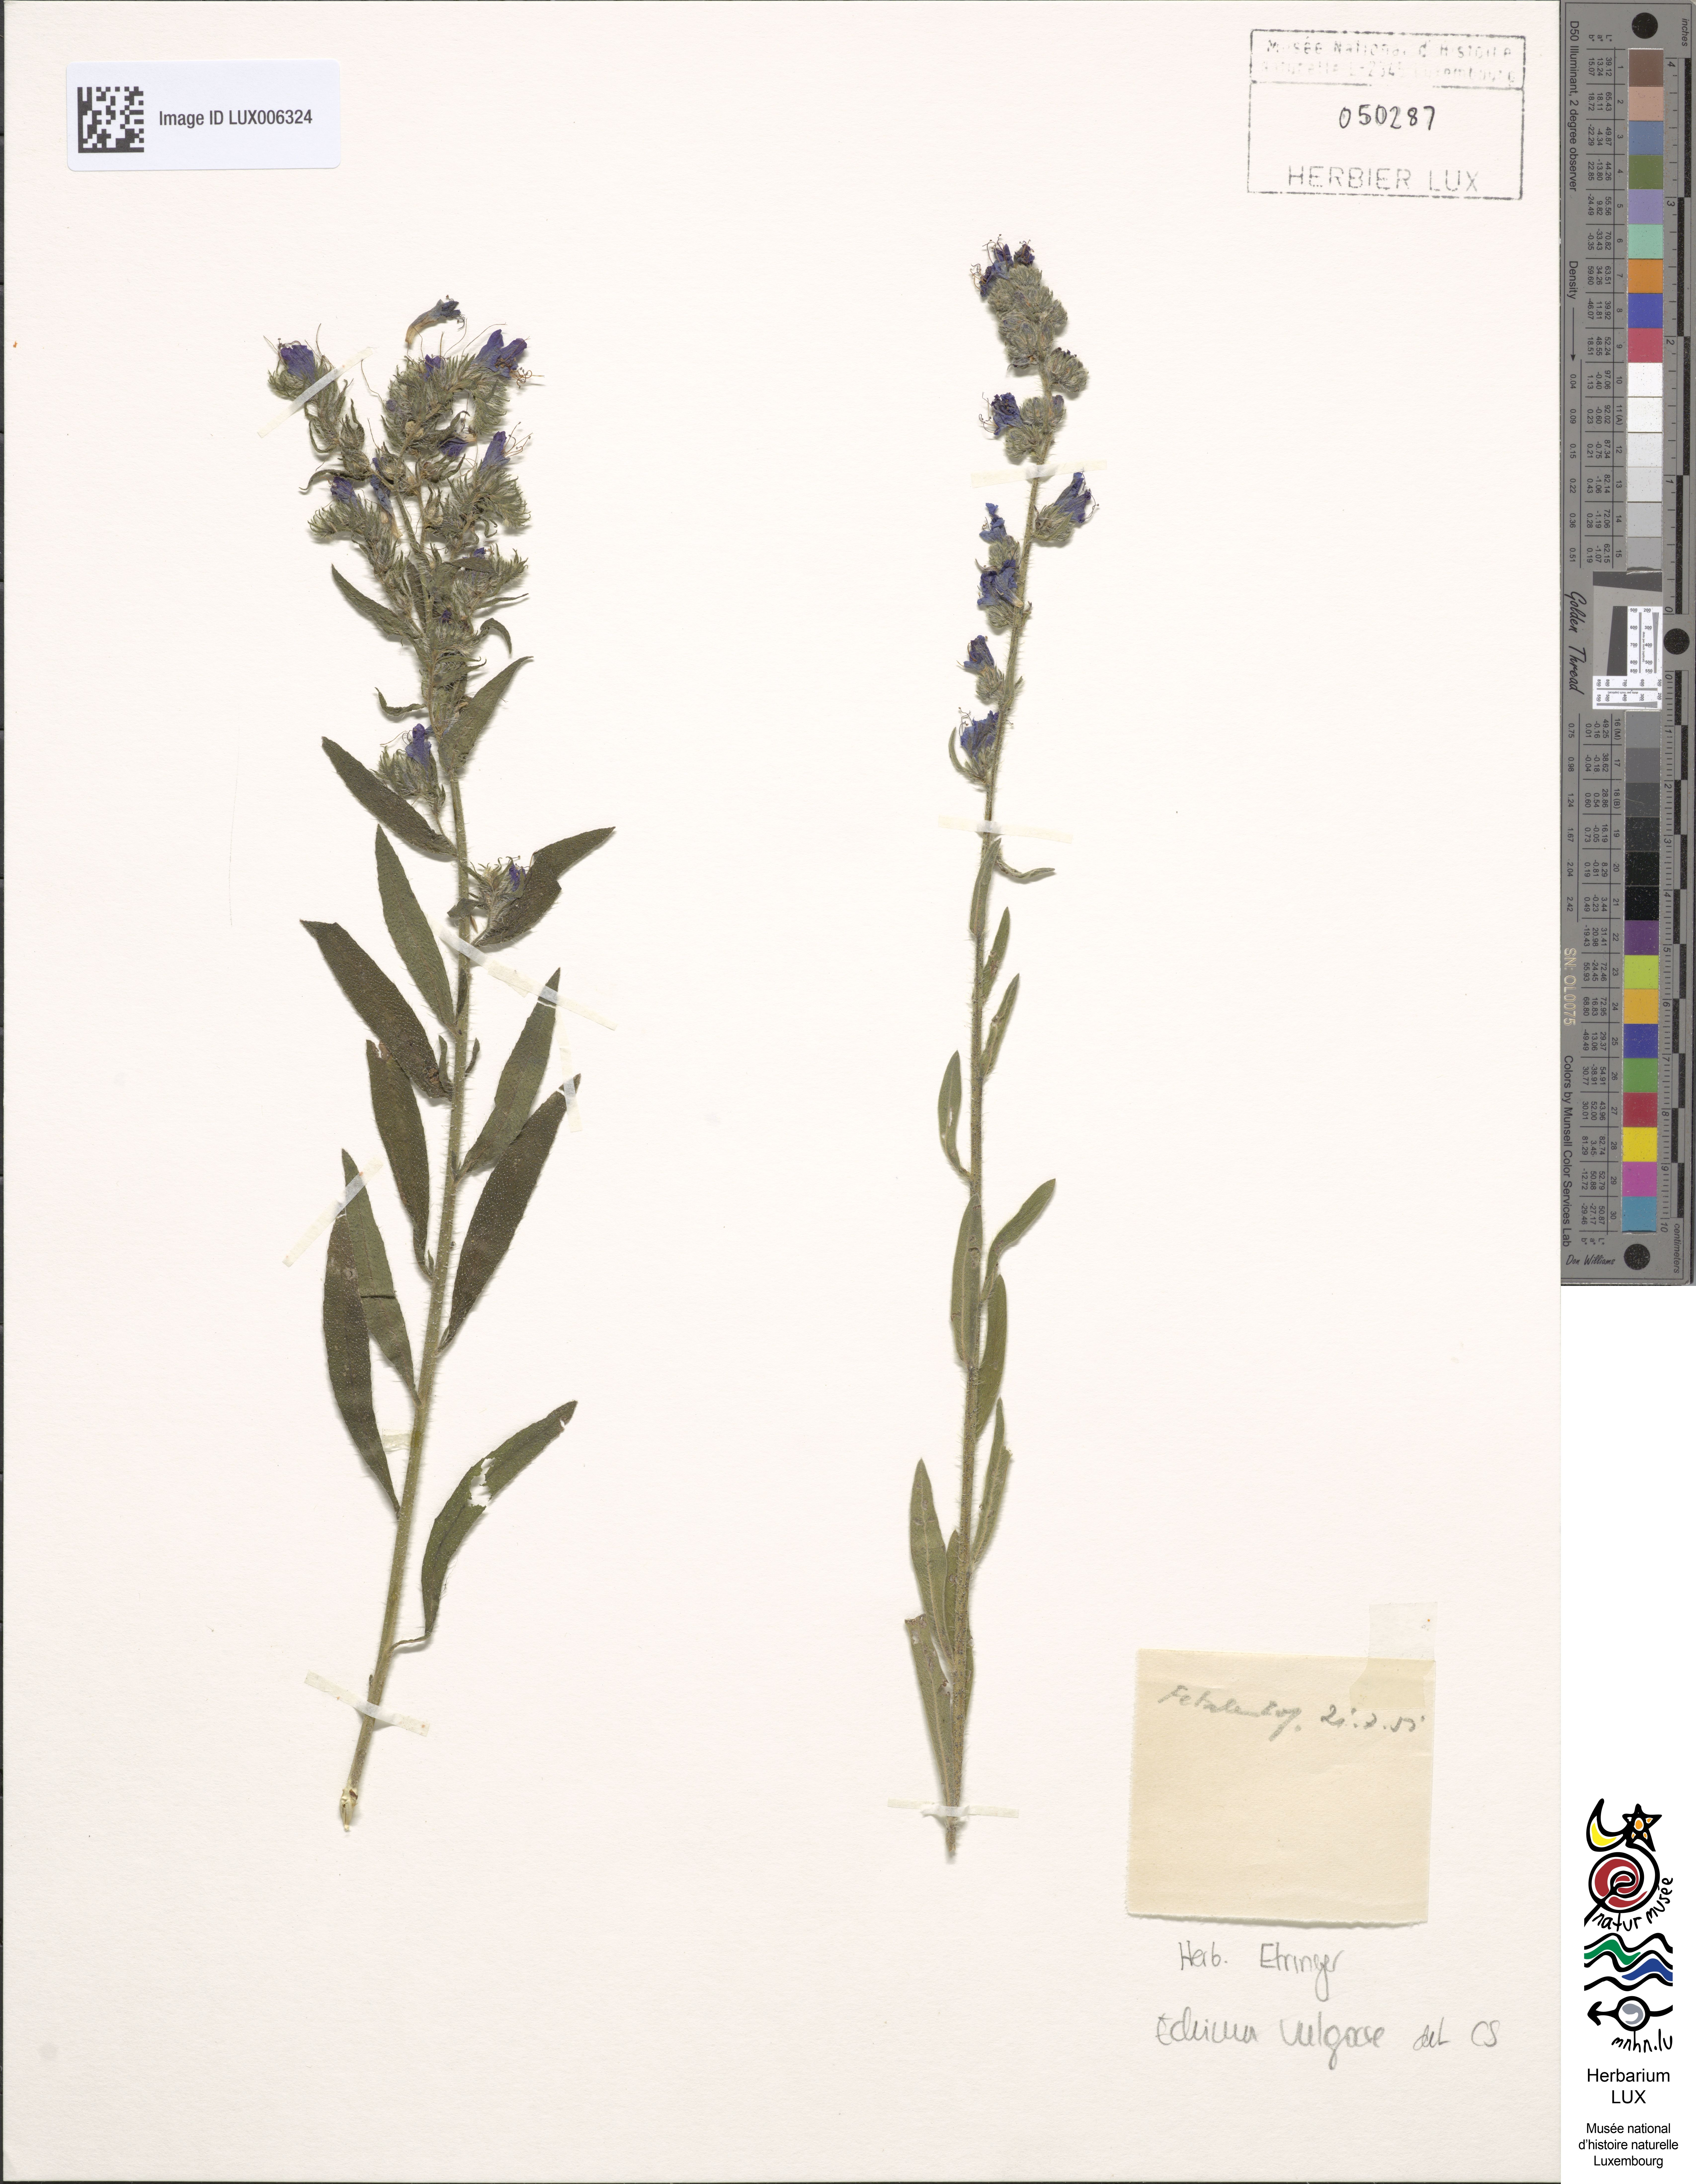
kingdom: Plantae
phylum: Tracheophyta
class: Magnoliopsida
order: Boraginales
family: Boraginaceae
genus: Echium
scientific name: Echium vulgare
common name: Common viper's bugloss
